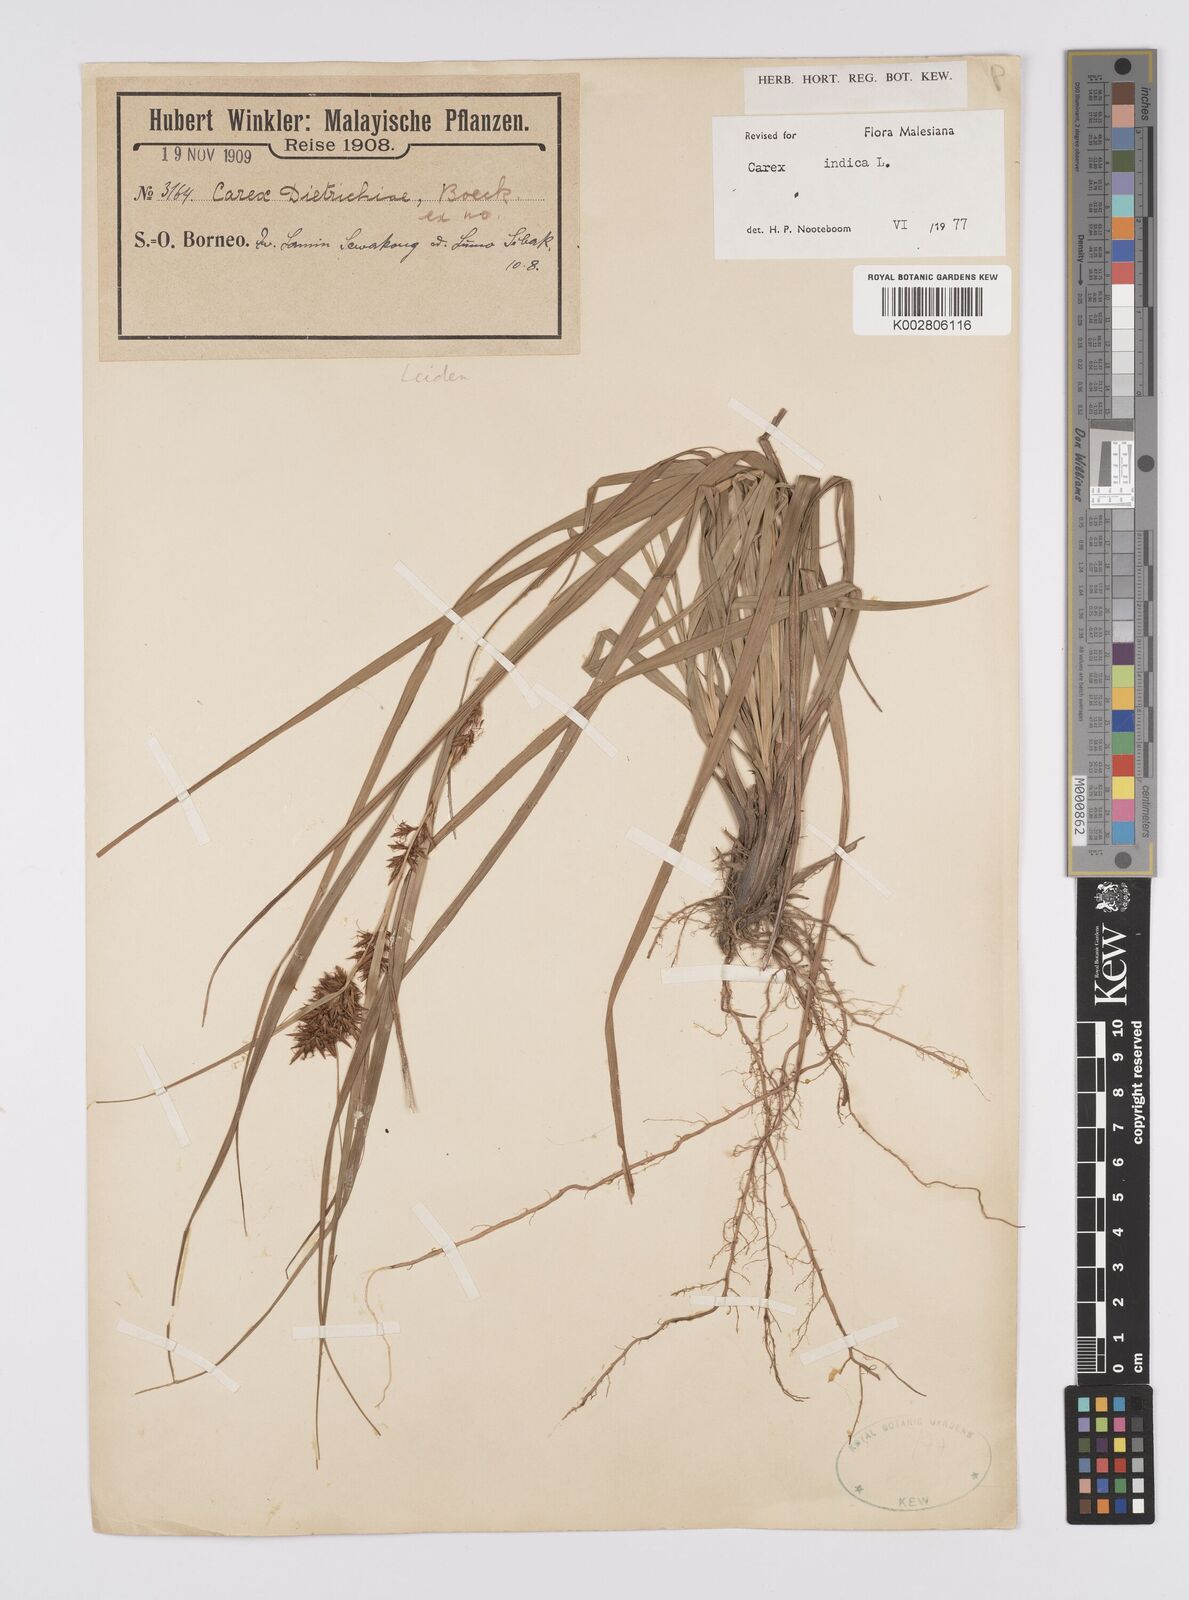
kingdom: Plantae
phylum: Tracheophyta
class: Liliopsida
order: Poales
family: Cyperaceae
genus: Carex
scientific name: Carex indica
